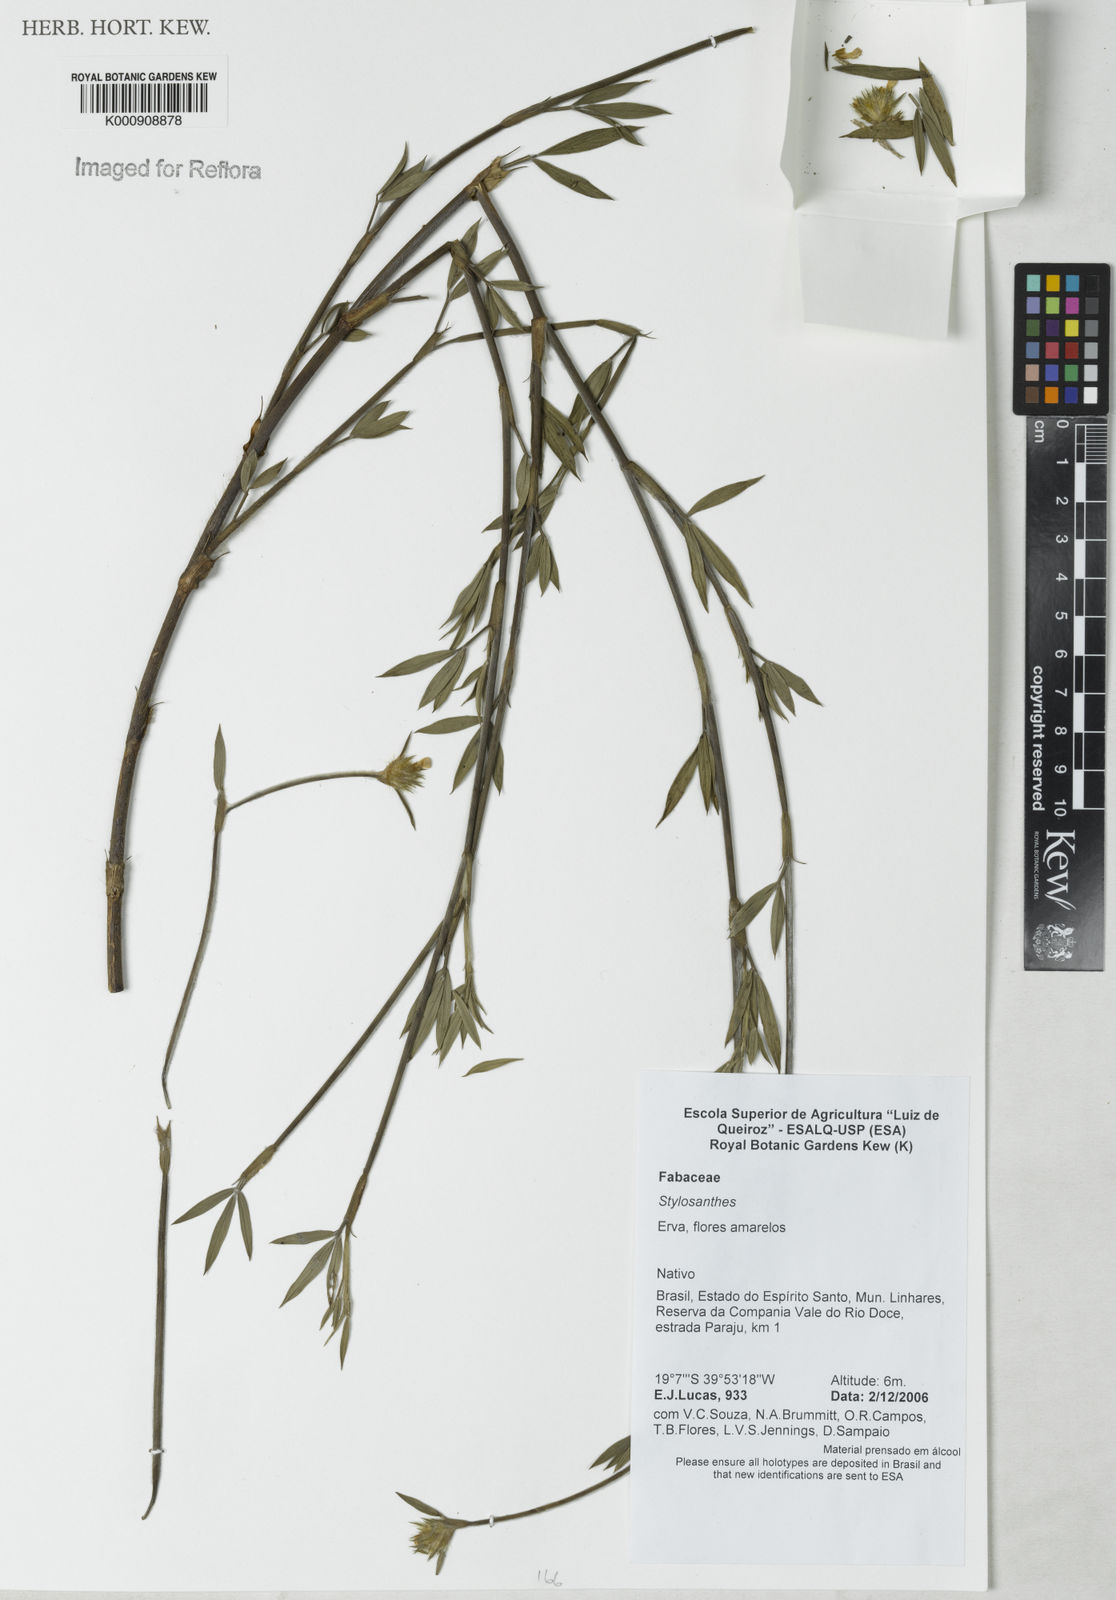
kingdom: Plantae
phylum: Tracheophyta
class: Magnoliopsida
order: Fabales
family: Fabaceae
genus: Stylosanthes
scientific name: Stylosanthes
